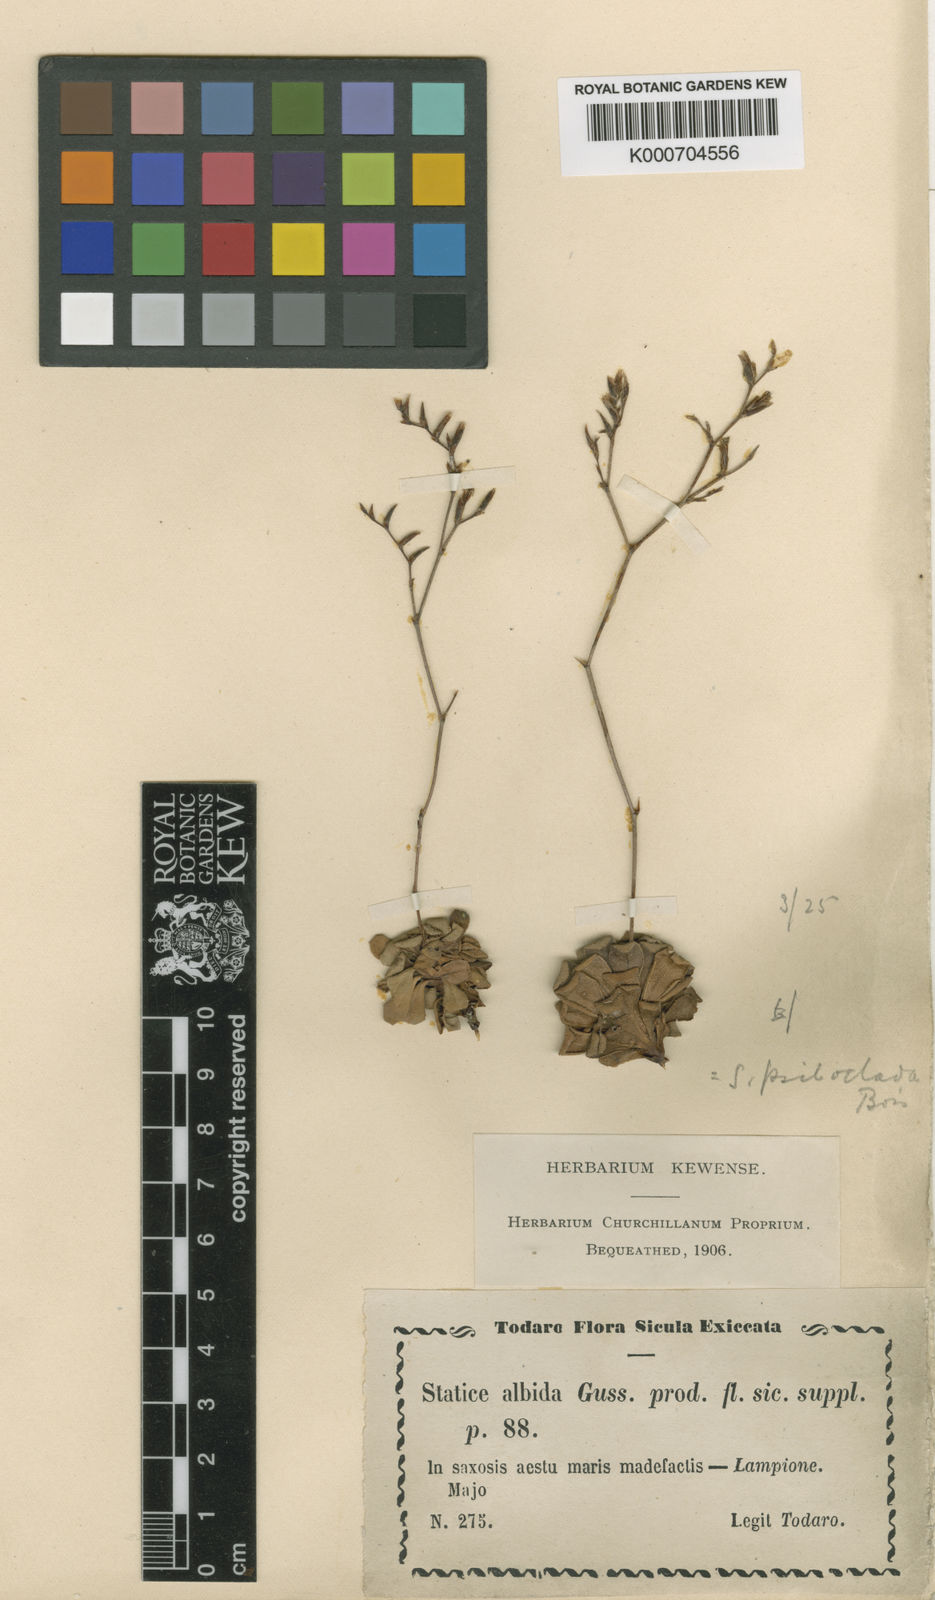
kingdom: Plantae
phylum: Tracheophyta
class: Magnoliopsida
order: Caryophyllales
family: Plumbaginaceae
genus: Limonium
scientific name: Limonium albidum
